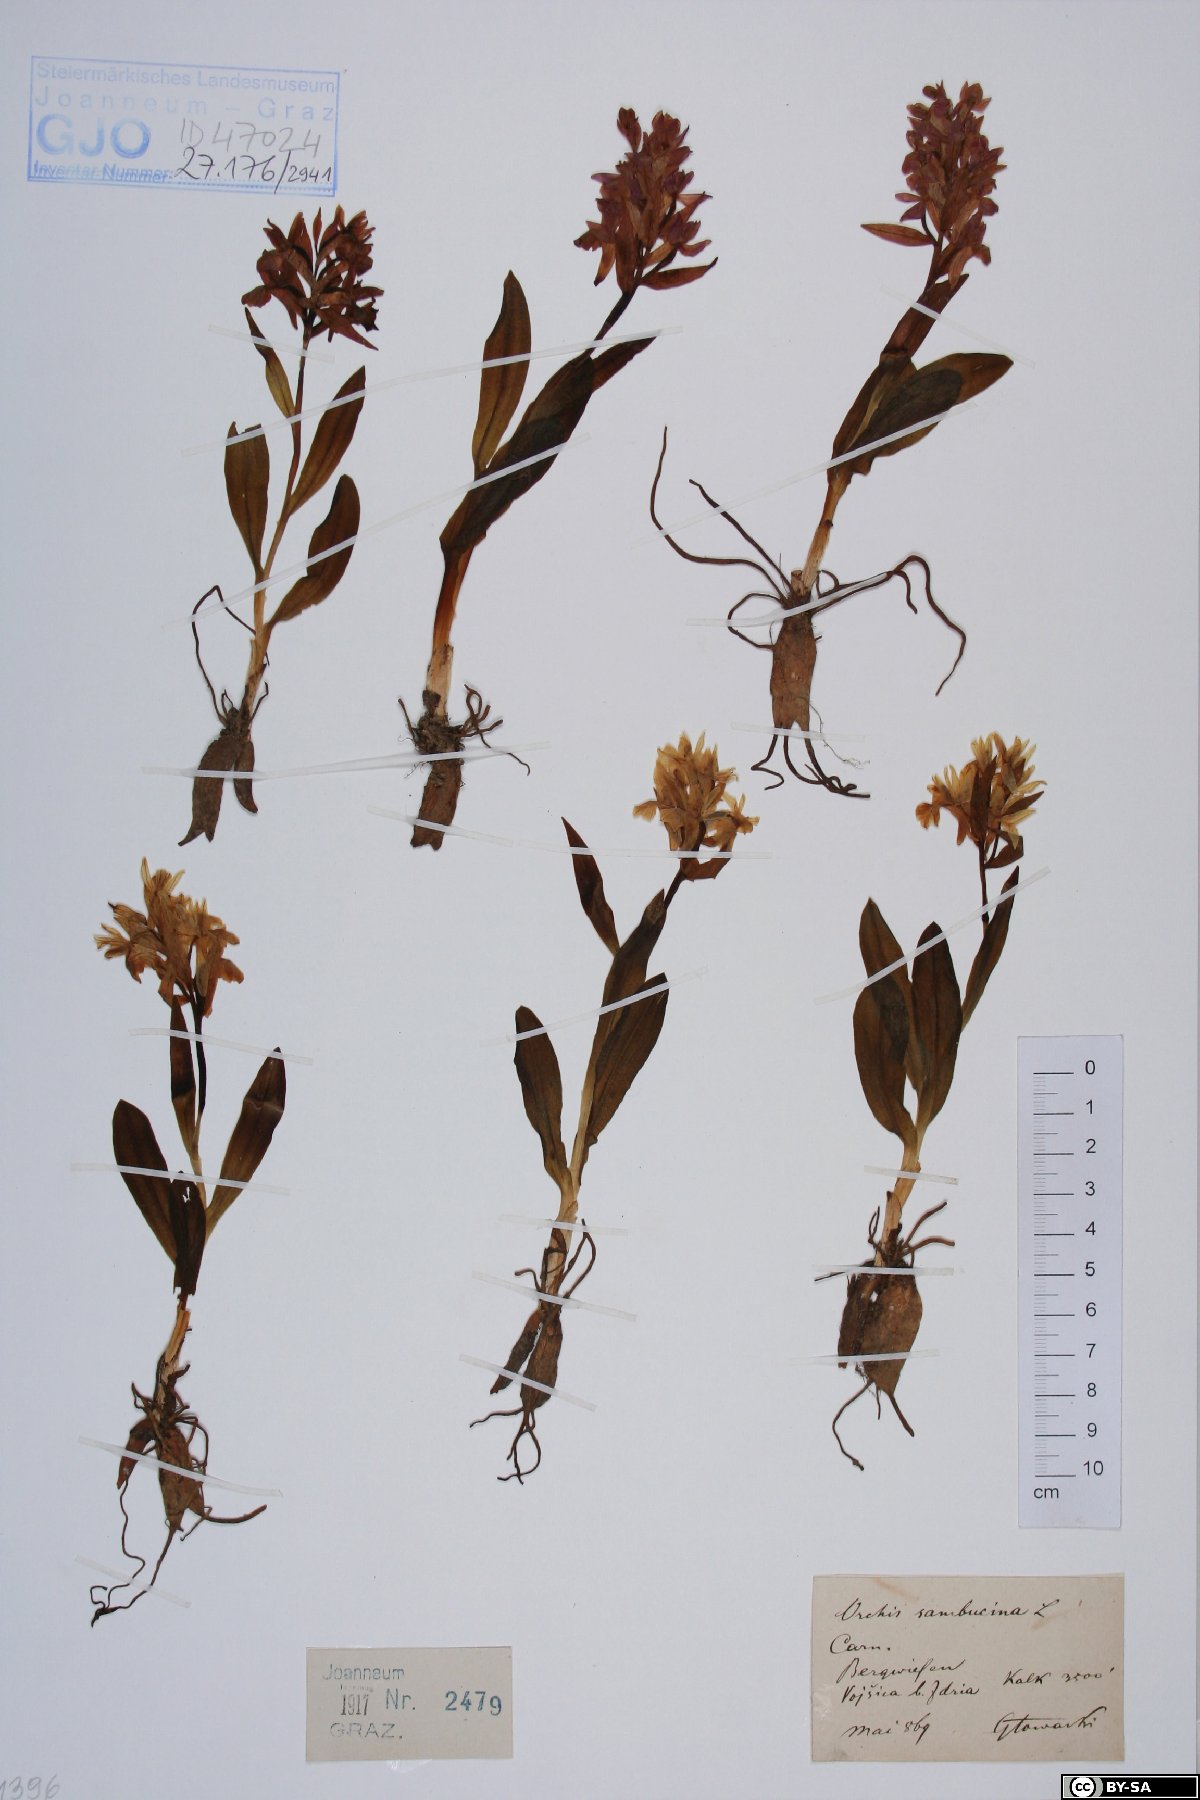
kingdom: Plantae
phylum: Tracheophyta
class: Liliopsida
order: Asparagales
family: Orchidaceae
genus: Dactylorhiza
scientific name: Dactylorhiza sambucina
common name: Elder-flowered orchid
